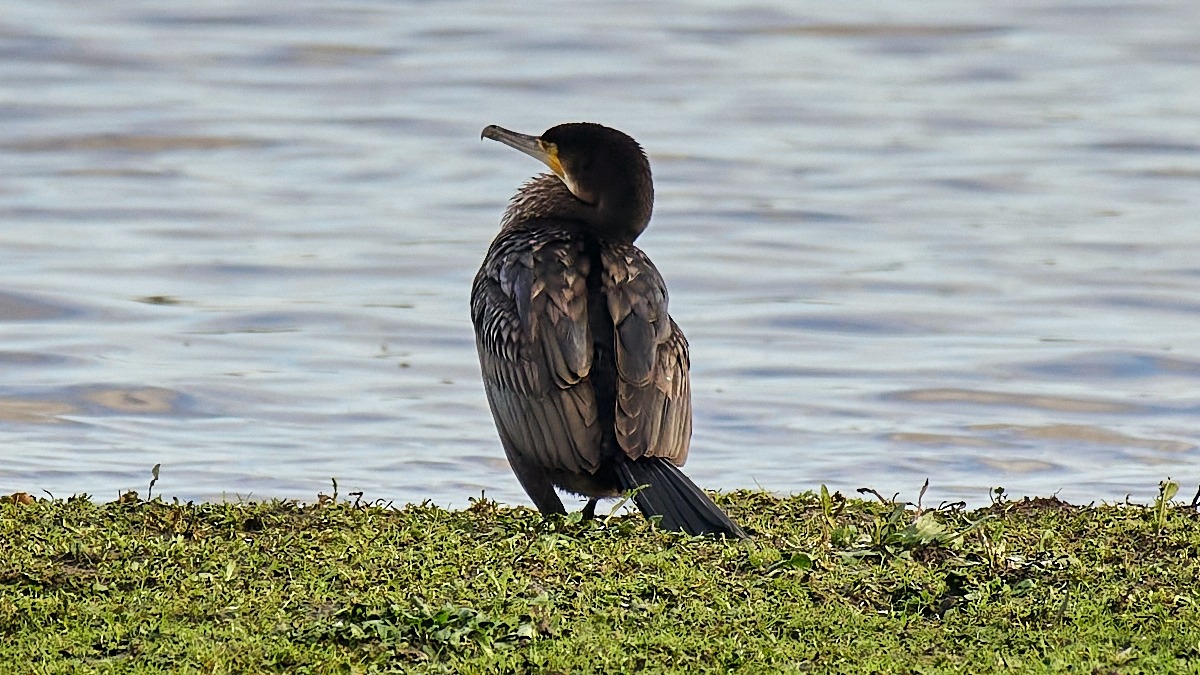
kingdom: Animalia
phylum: Chordata
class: Aves
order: Suliformes
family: Phalacrocoracidae
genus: Phalacrocorax
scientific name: Phalacrocorax carbo
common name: Skarv
